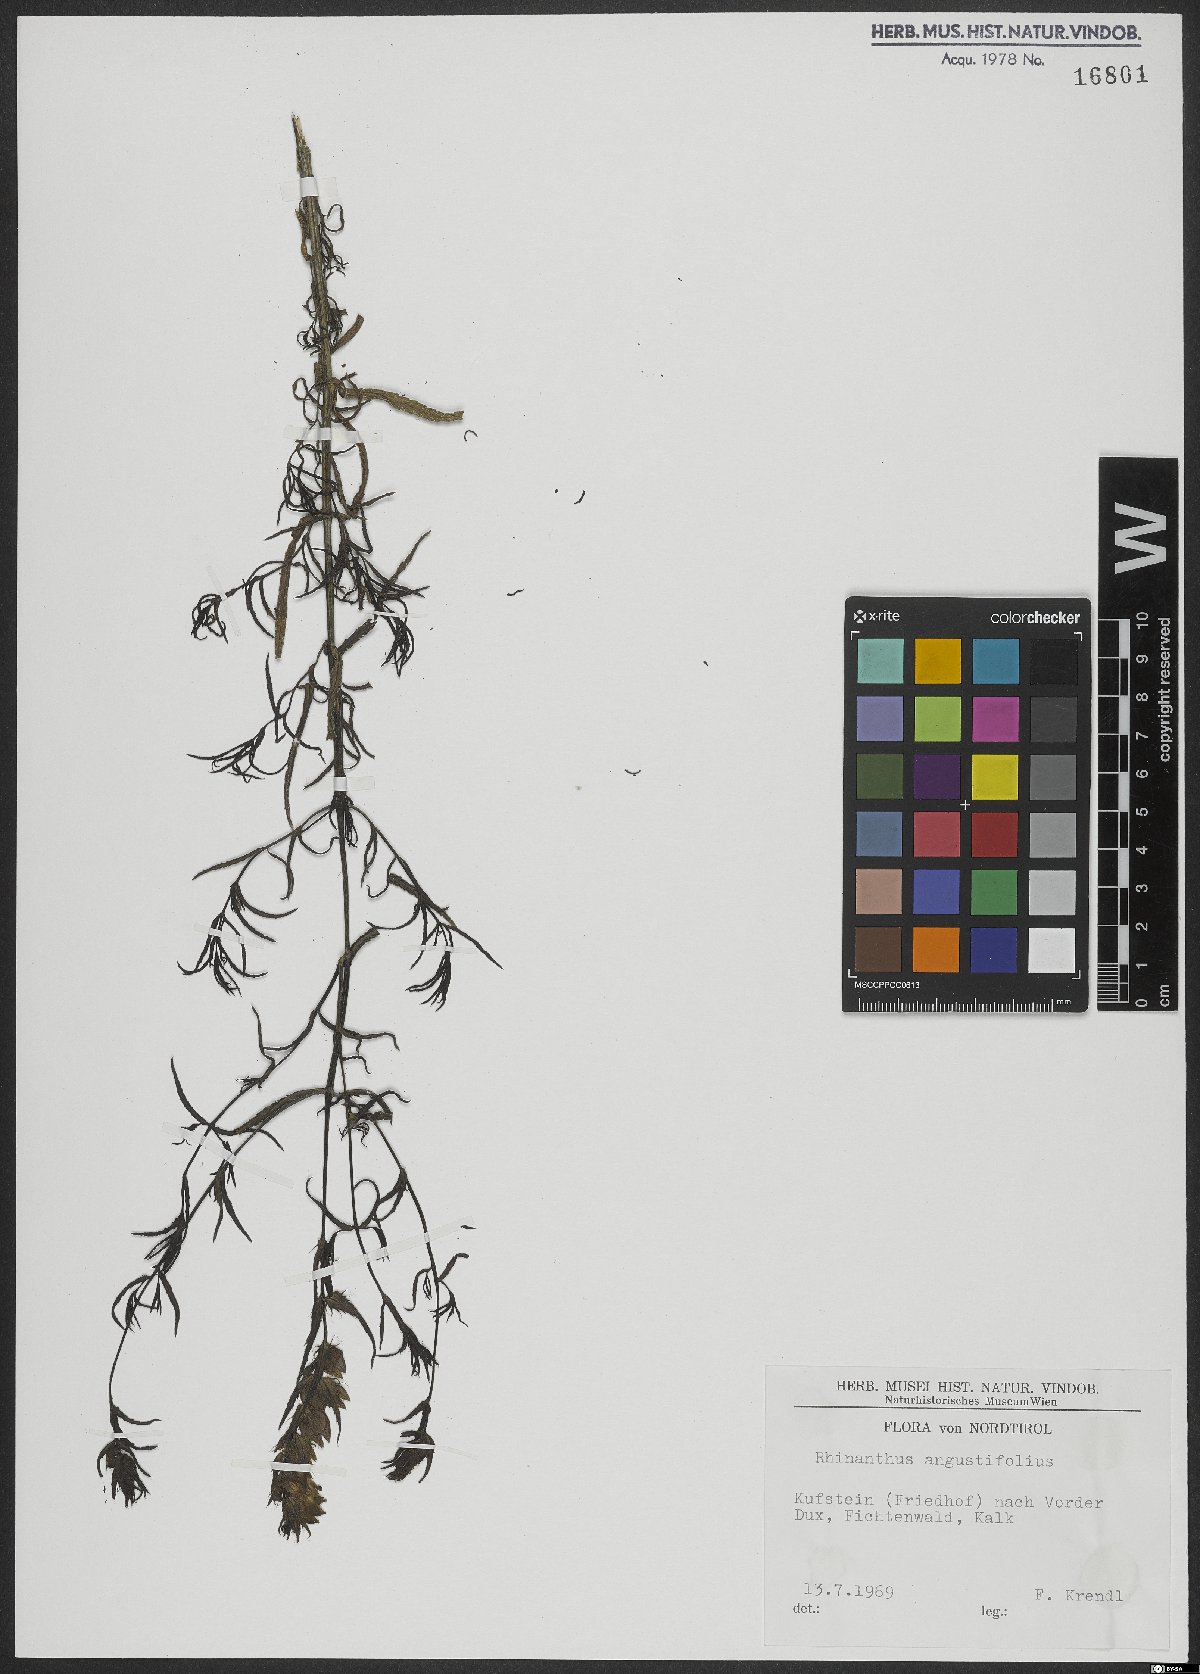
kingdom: Plantae
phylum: Tracheophyta
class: Magnoliopsida
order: Lamiales
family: Orobanchaceae
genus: Rhinanthus
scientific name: Rhinanthus glacialis
